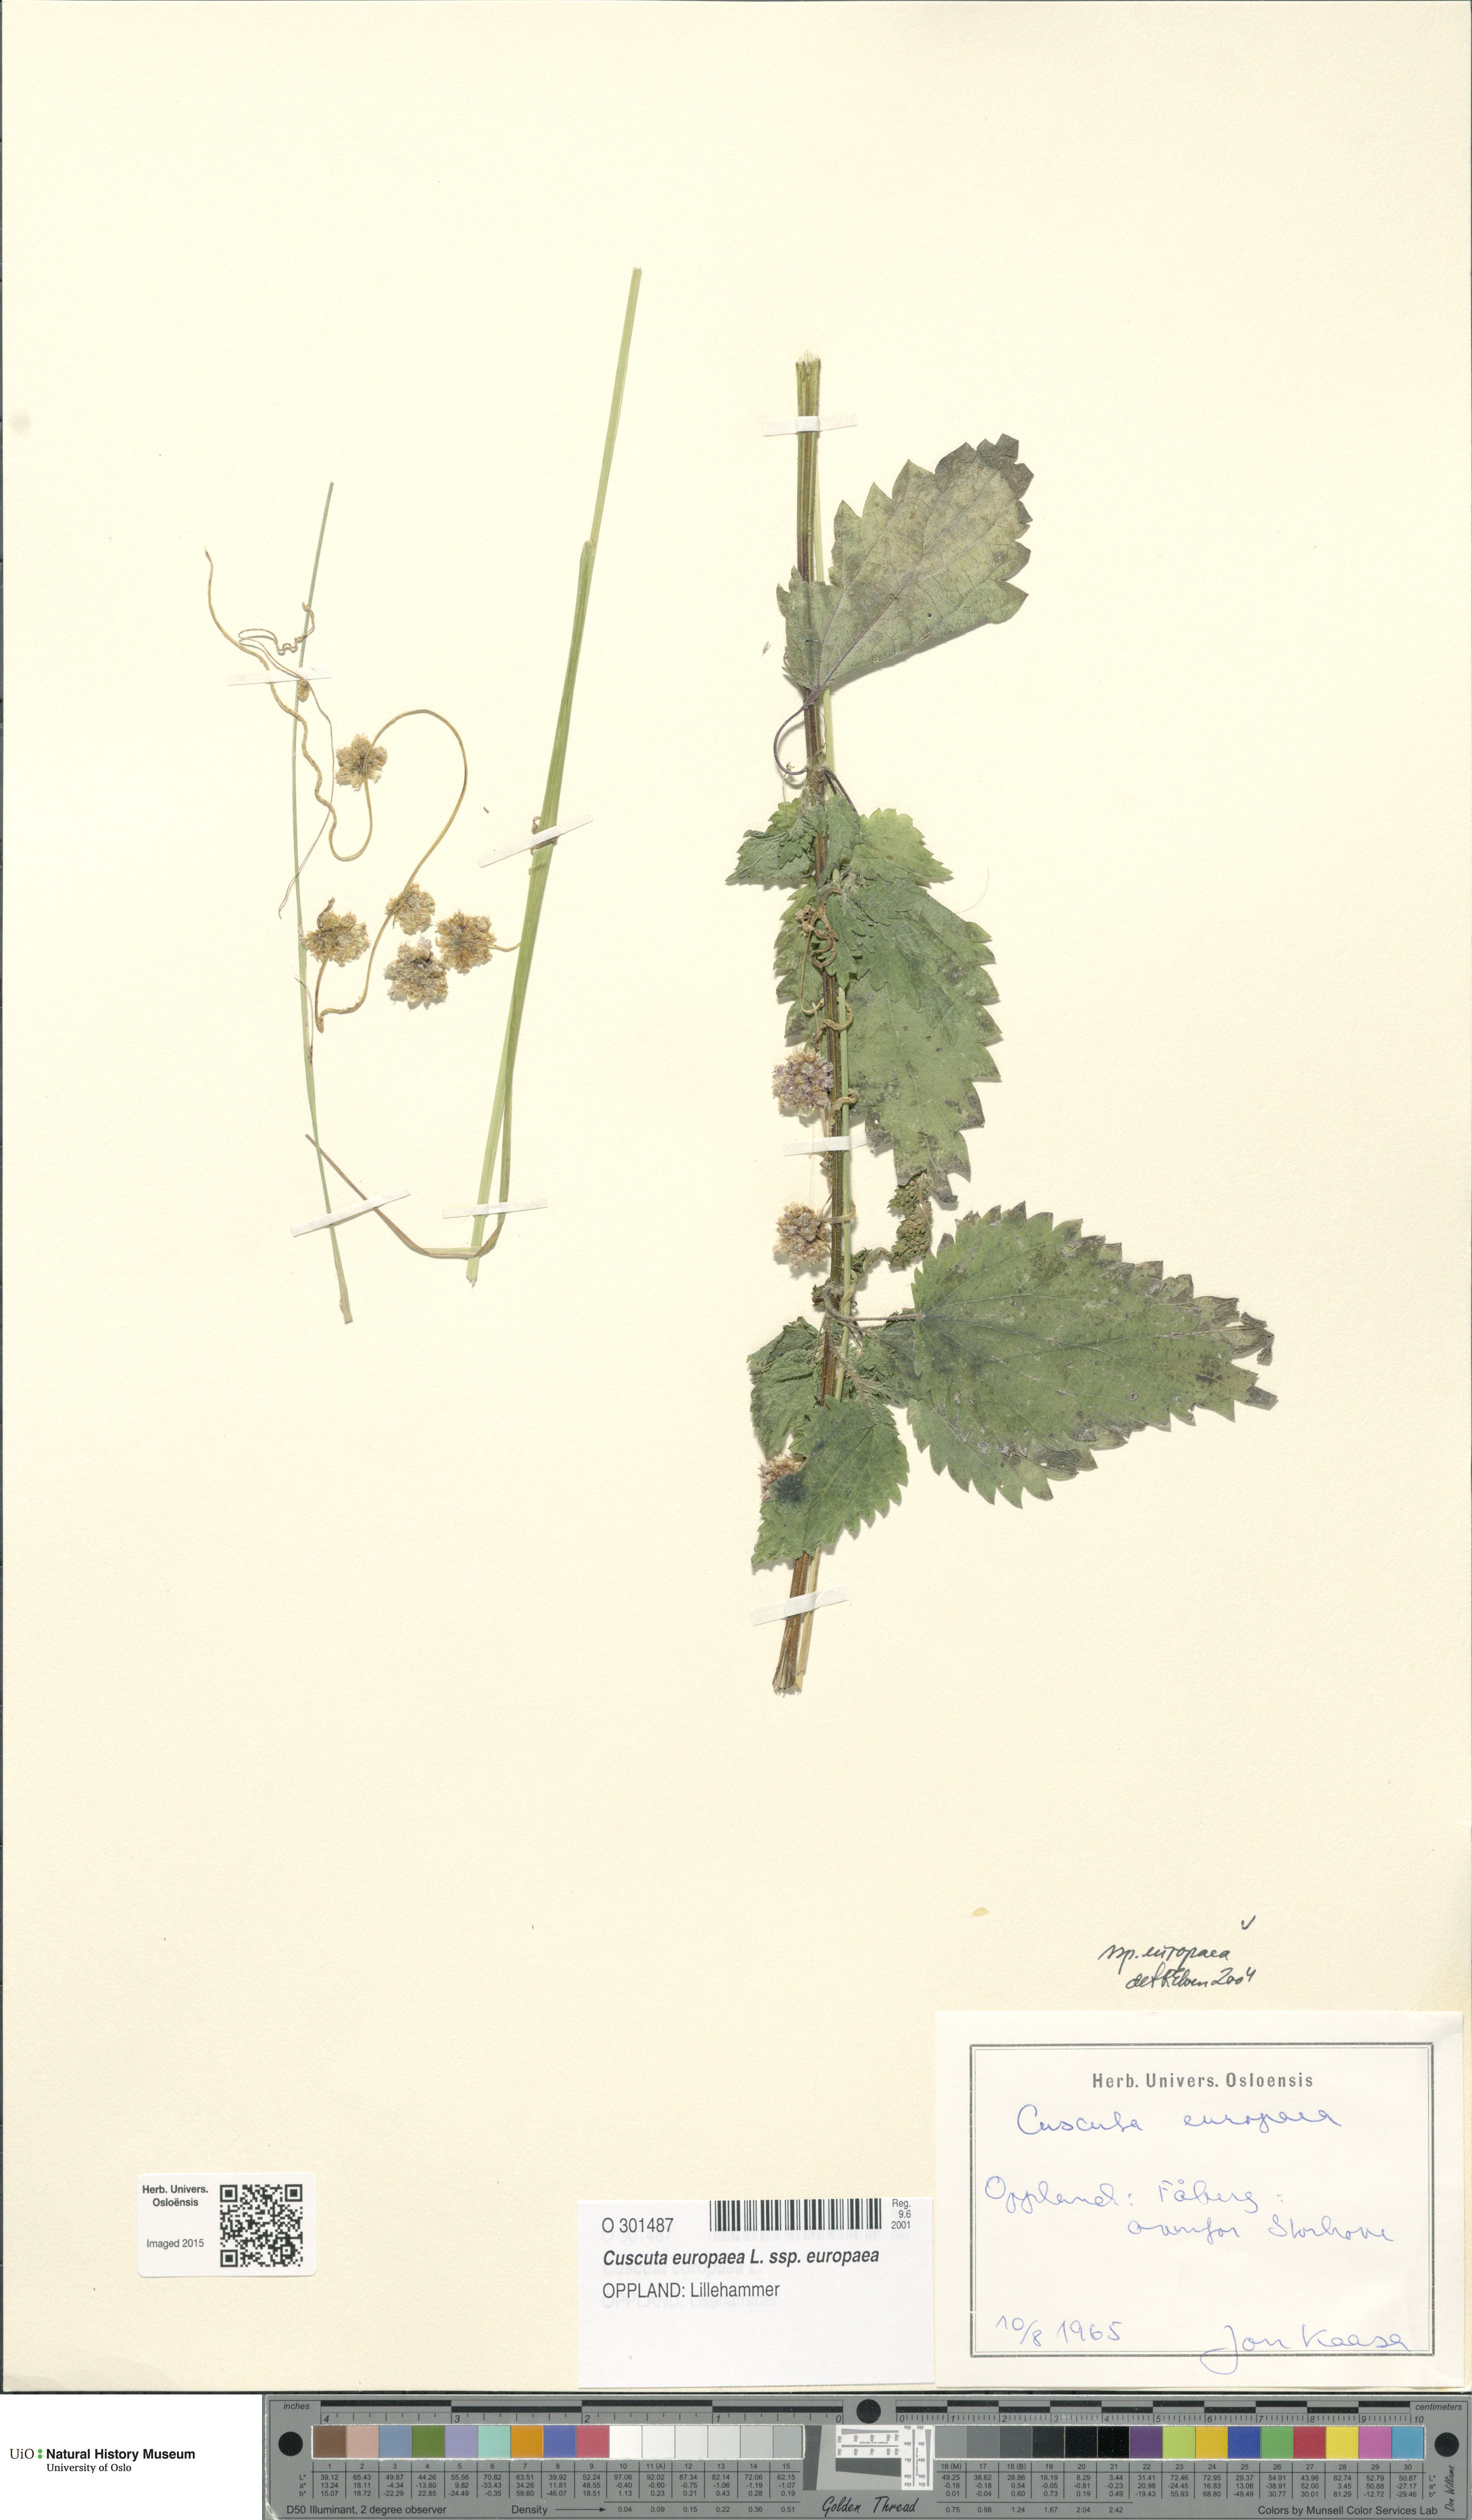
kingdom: Plantae
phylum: Tracheophyta
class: Magnoliopsida
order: Solanales
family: Convolvulaceae
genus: Cuscuta
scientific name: Cuscuta europaea
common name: Greater dodder
